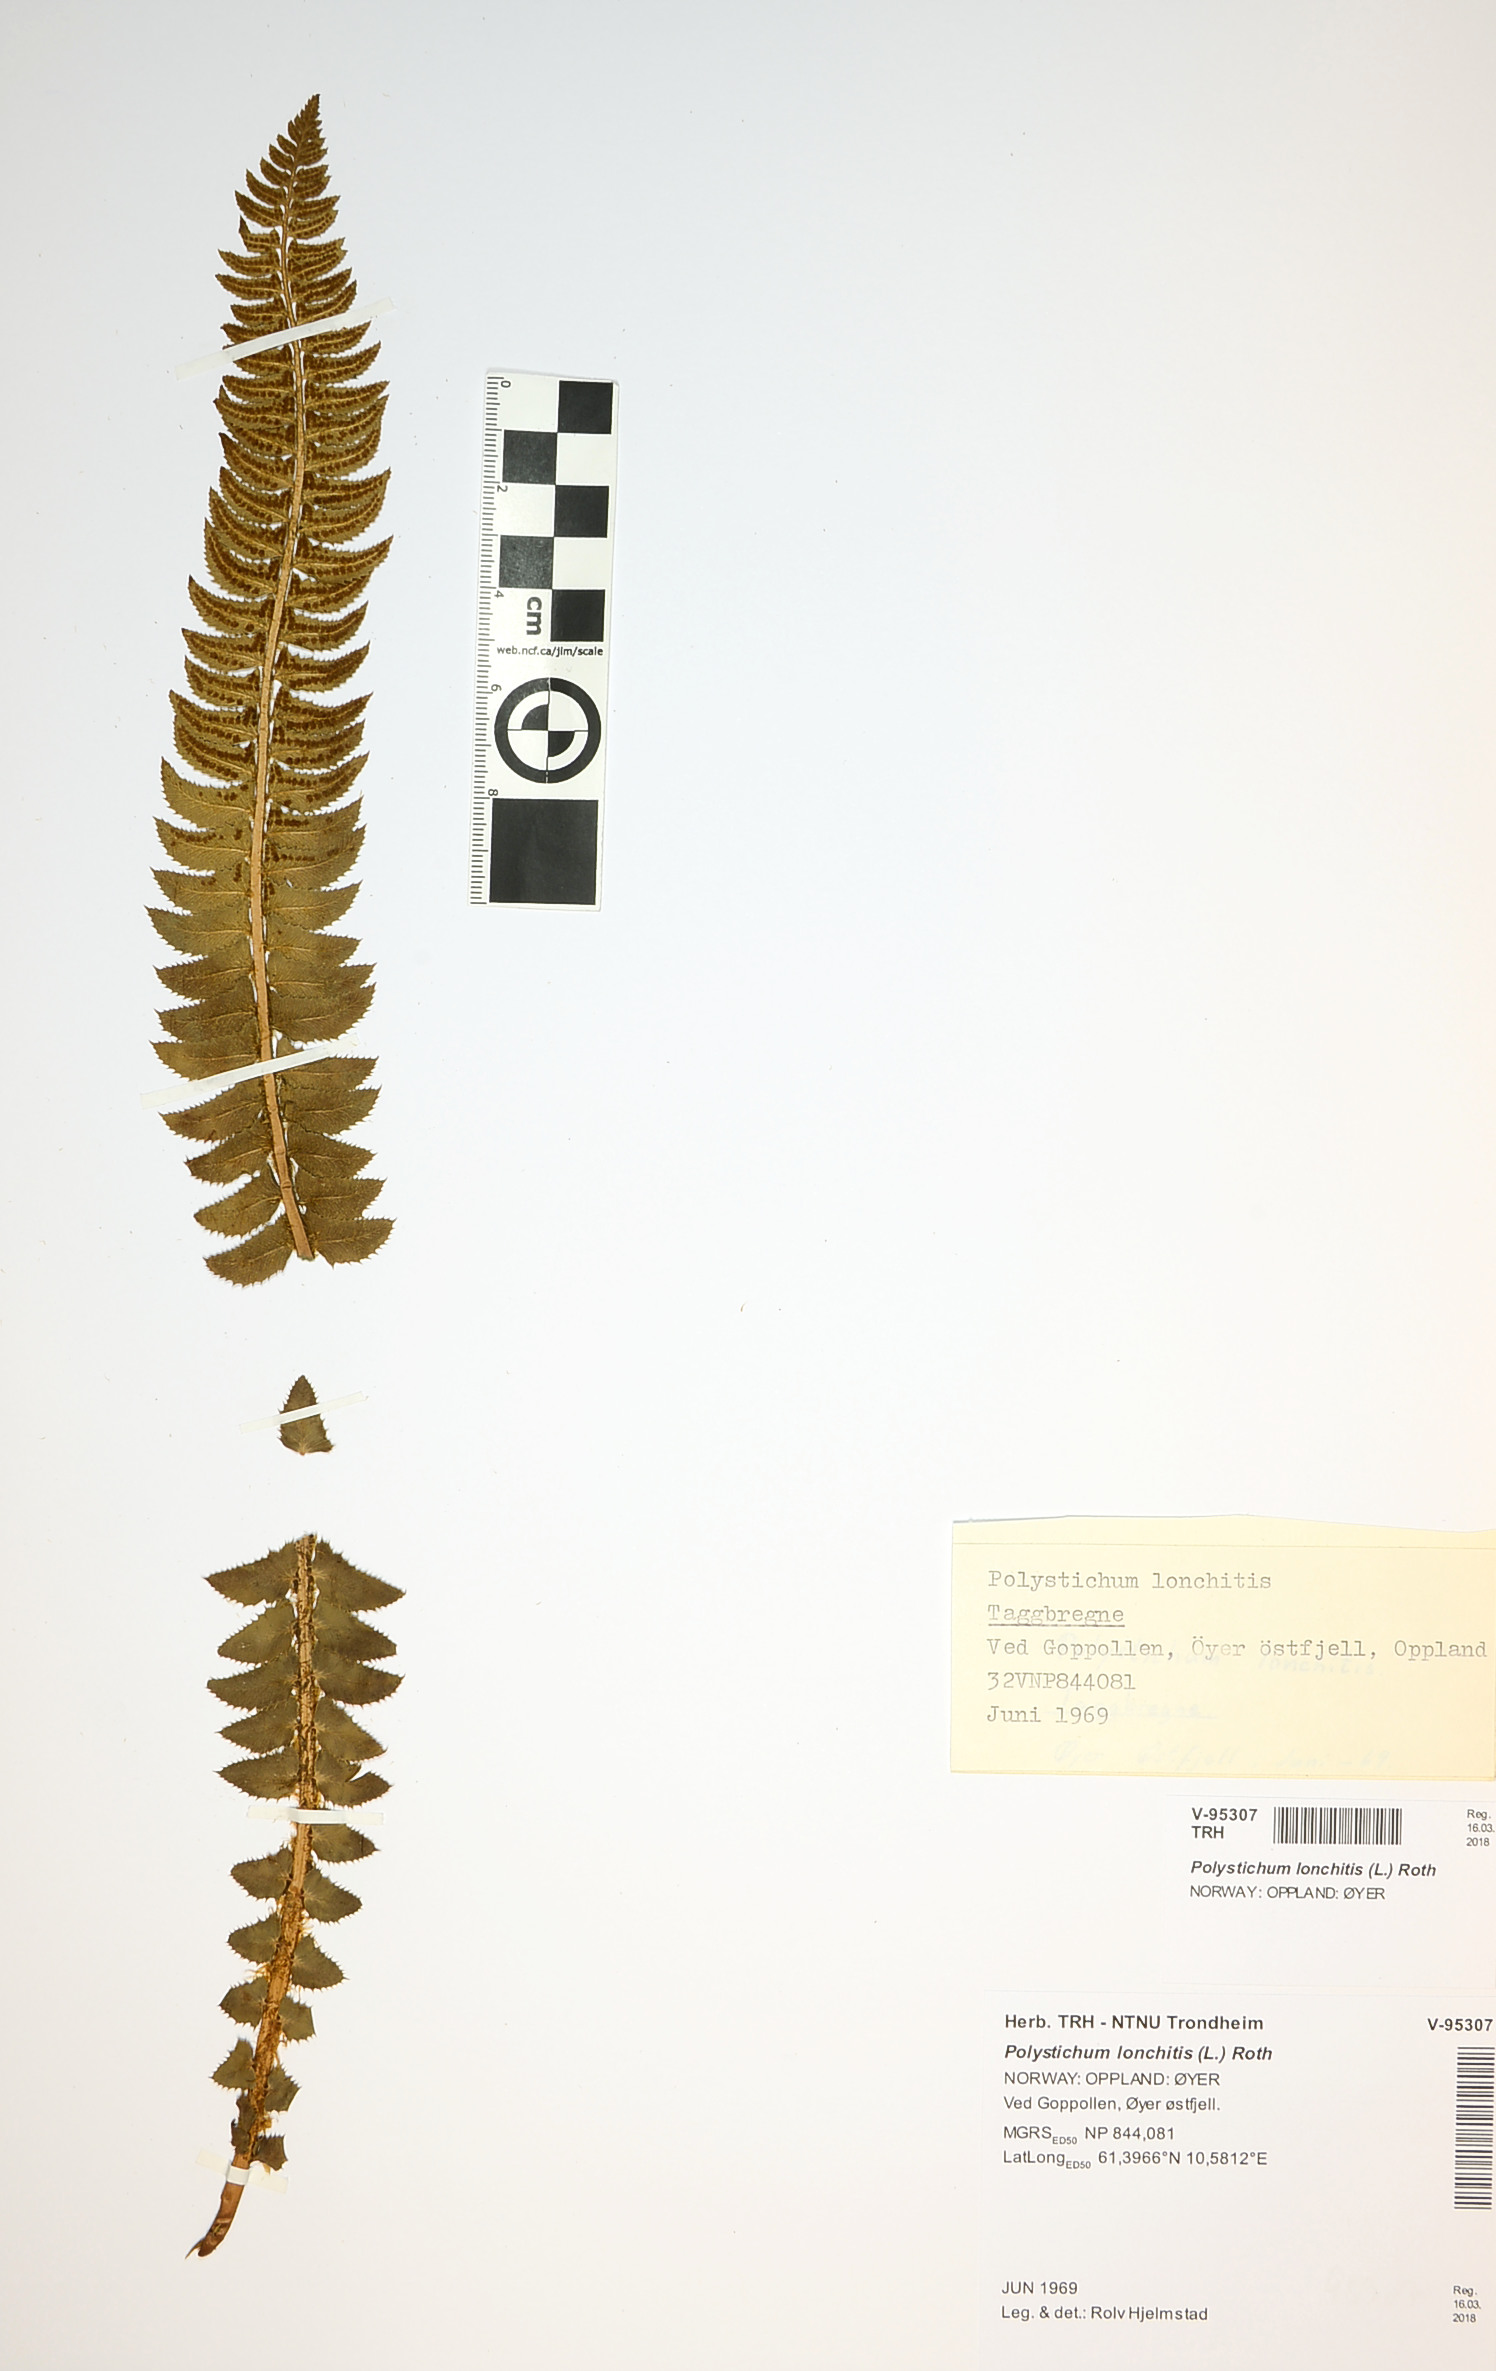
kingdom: Plantae
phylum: Tracheophyta
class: Polypodiopsida
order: Polypodiales
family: Dryopteridaceae
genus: Polystichum
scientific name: Polystichum lonchitis
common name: Holly fern
